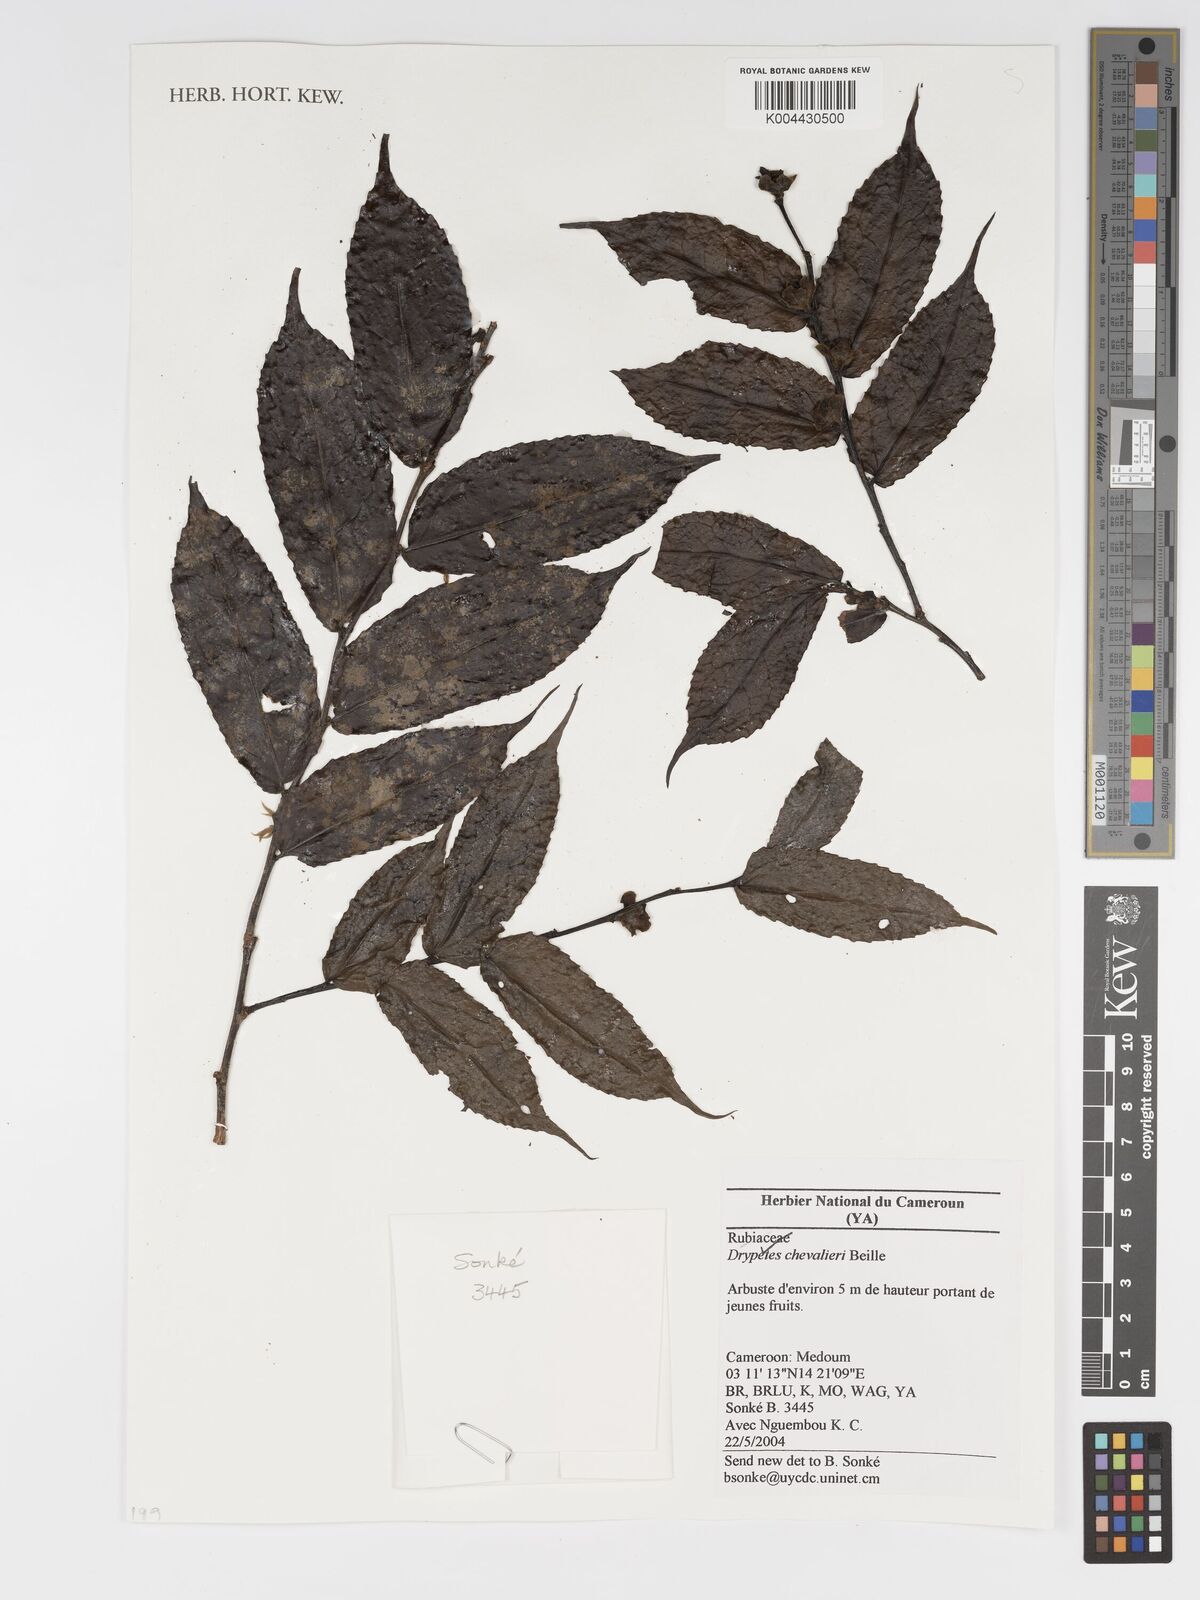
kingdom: Plantae
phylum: Tracheophyta
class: Magnoliopsida
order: Malpighiales
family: Putranjivaceae
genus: Drypetes
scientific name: Drypetes chevalieri
